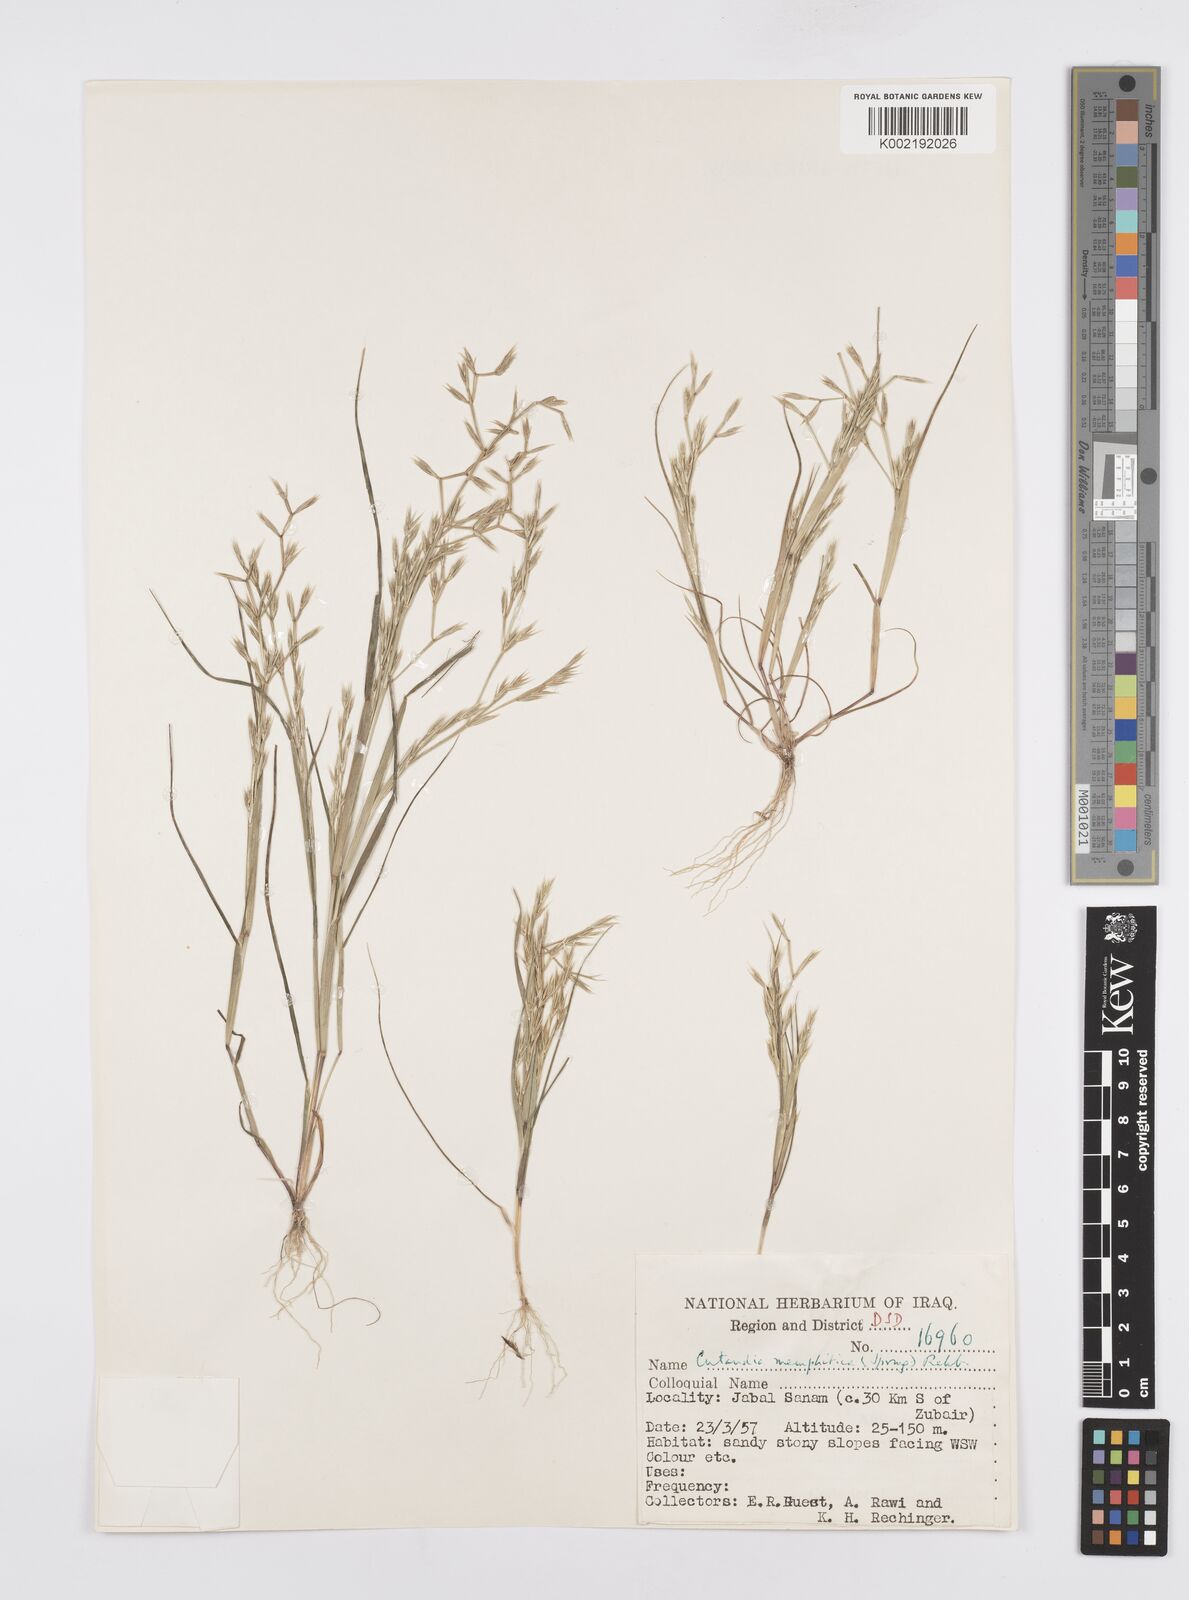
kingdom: Plantae
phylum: Tracheophyta
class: Liliopsida
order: Poales
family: Poaceae
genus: Cutandia
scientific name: Cutandia memphitica
